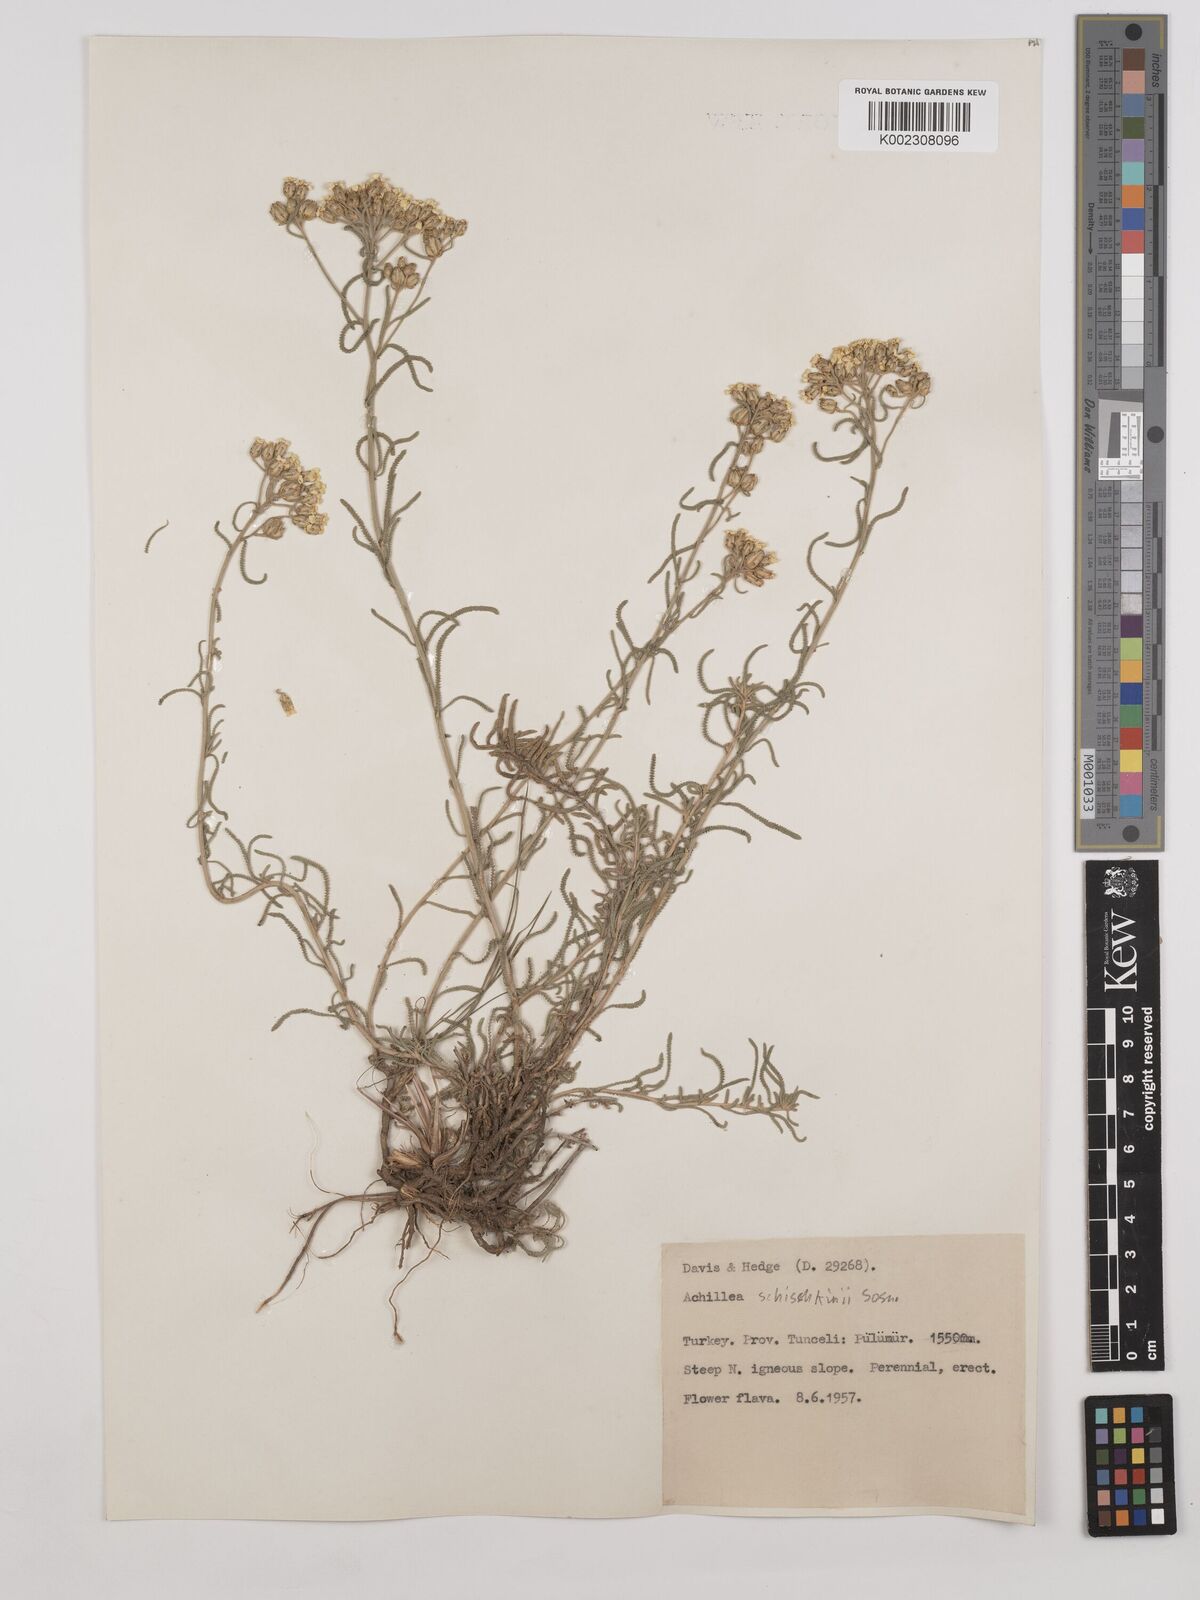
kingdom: Plantae
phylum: Tracheophyta
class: Magnoliopsida
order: Asterales
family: Asteraceae
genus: Achillea
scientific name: Achillea schischkinii
